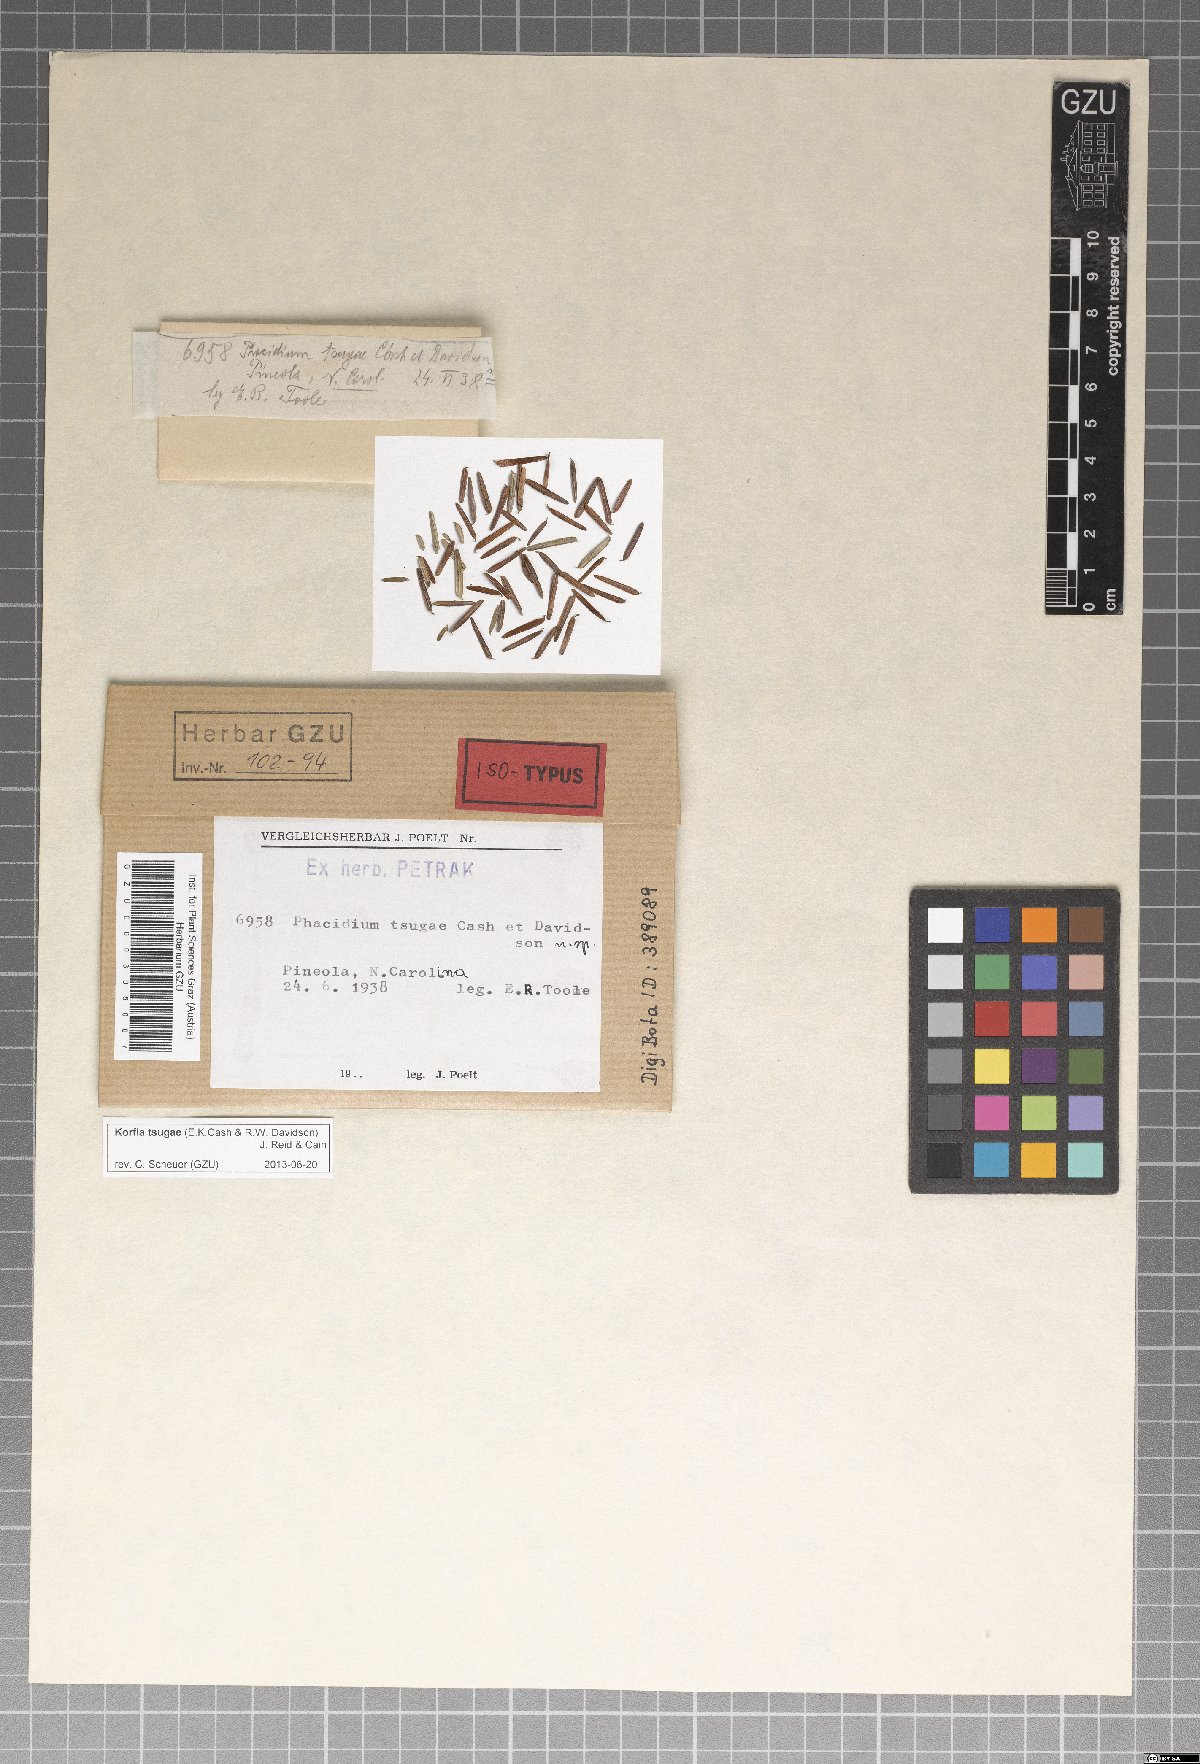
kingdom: Fungi
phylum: Ascomycota
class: Leotiomycetes
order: Helotiales
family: Hemiphacidiaceae
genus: Korfia
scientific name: Korfia tsugae
